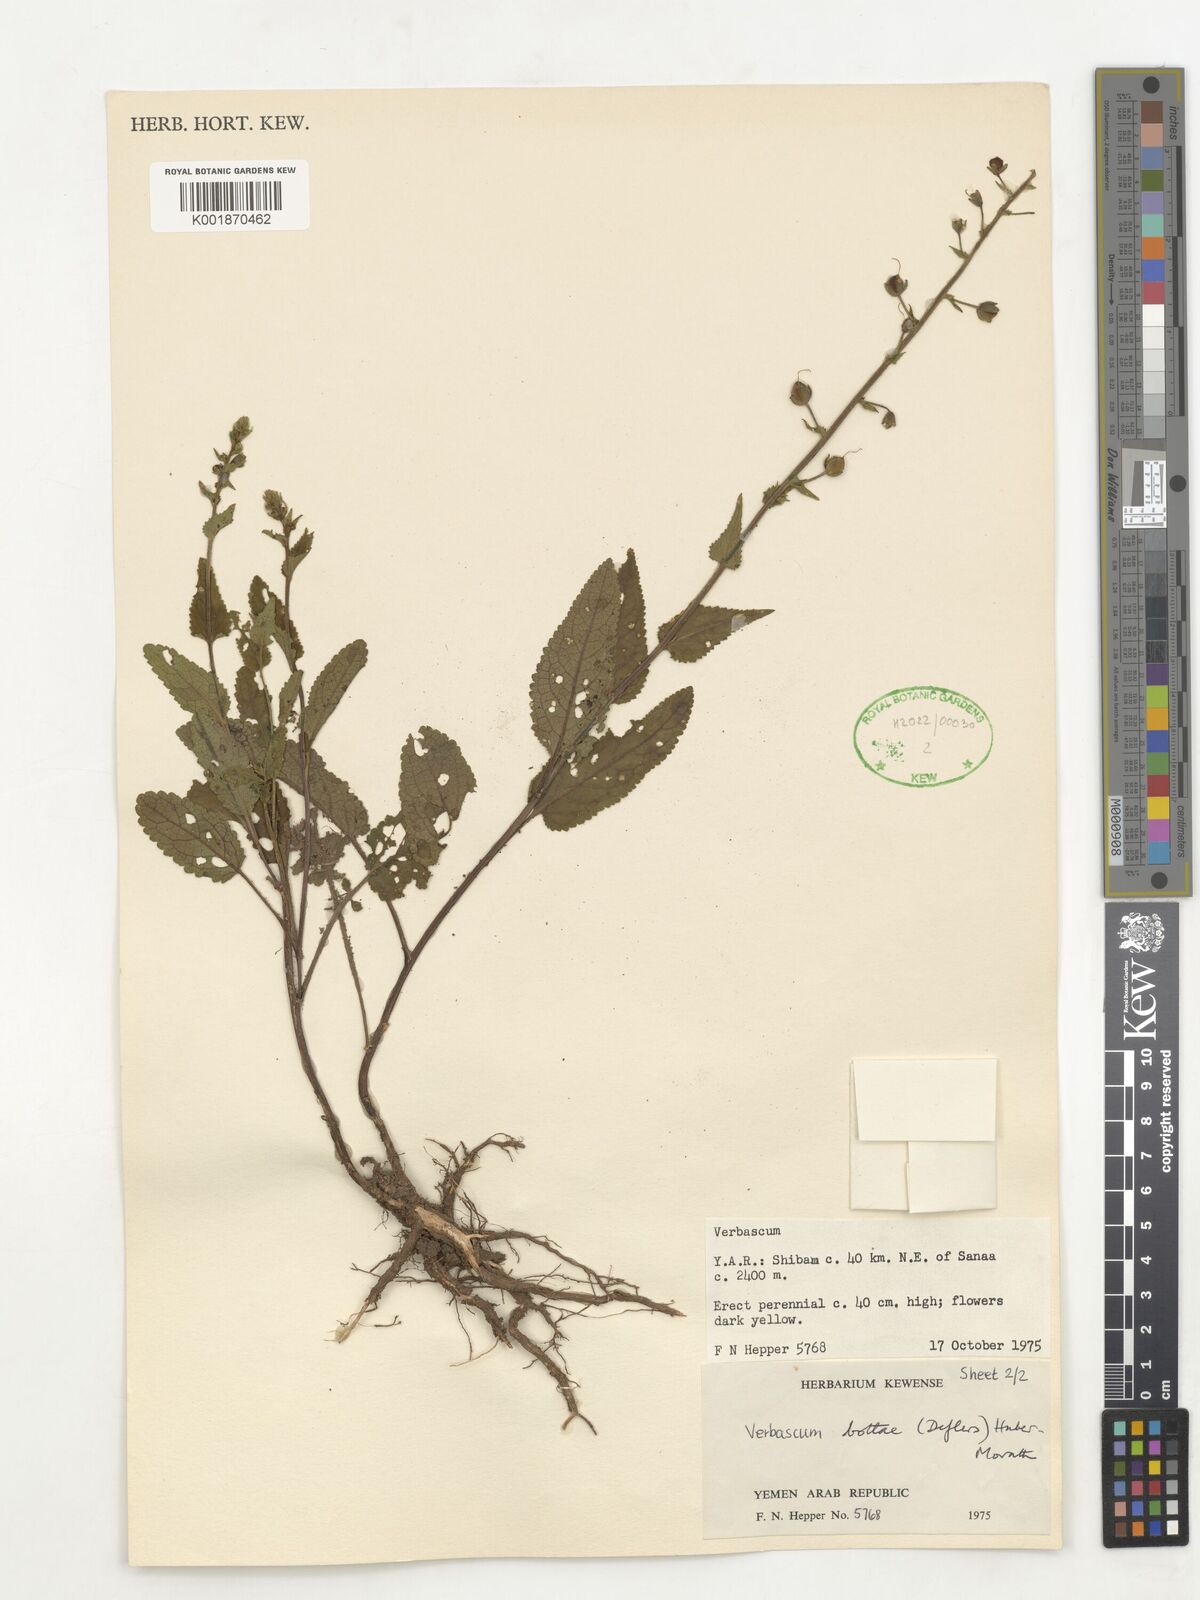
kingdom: Plantae
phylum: Tracheophyta
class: Magnoliopsida
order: Lamiales
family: Scrophulariaceae
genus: Rhabdotosperma
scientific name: Rhabdotosperma bottae
